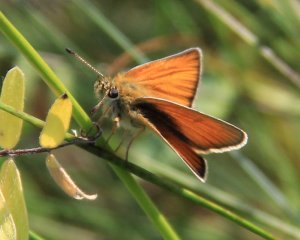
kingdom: Animalia
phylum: Arthropoda
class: Insecta
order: Lepidoptera
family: Hesperiidae
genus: Thymelicus
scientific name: Thymelicus lineola
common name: European Skipper
